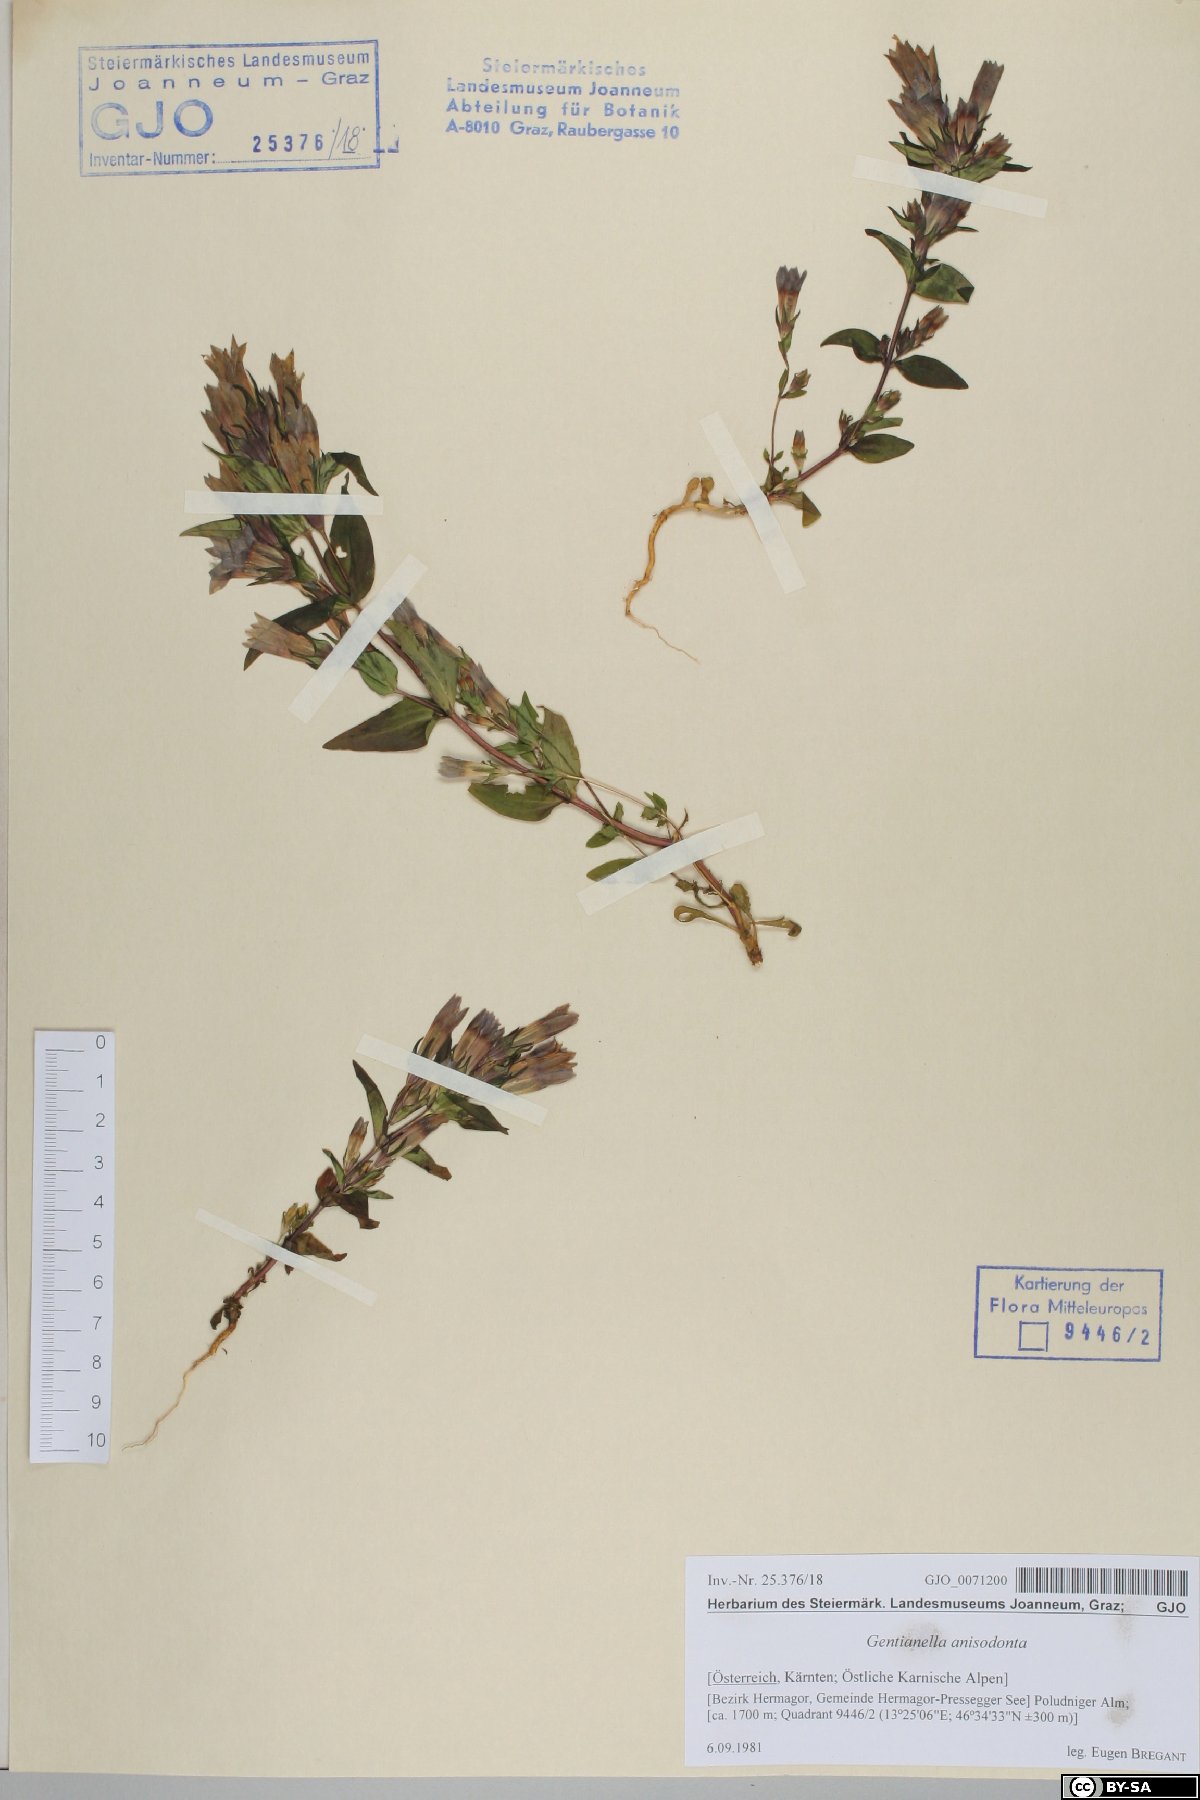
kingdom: Plantae
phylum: Tracheophyta
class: Magnoliopsida
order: Gentianales
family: Gentianaceae
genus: Gentianella
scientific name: Gentianella anisodonta
